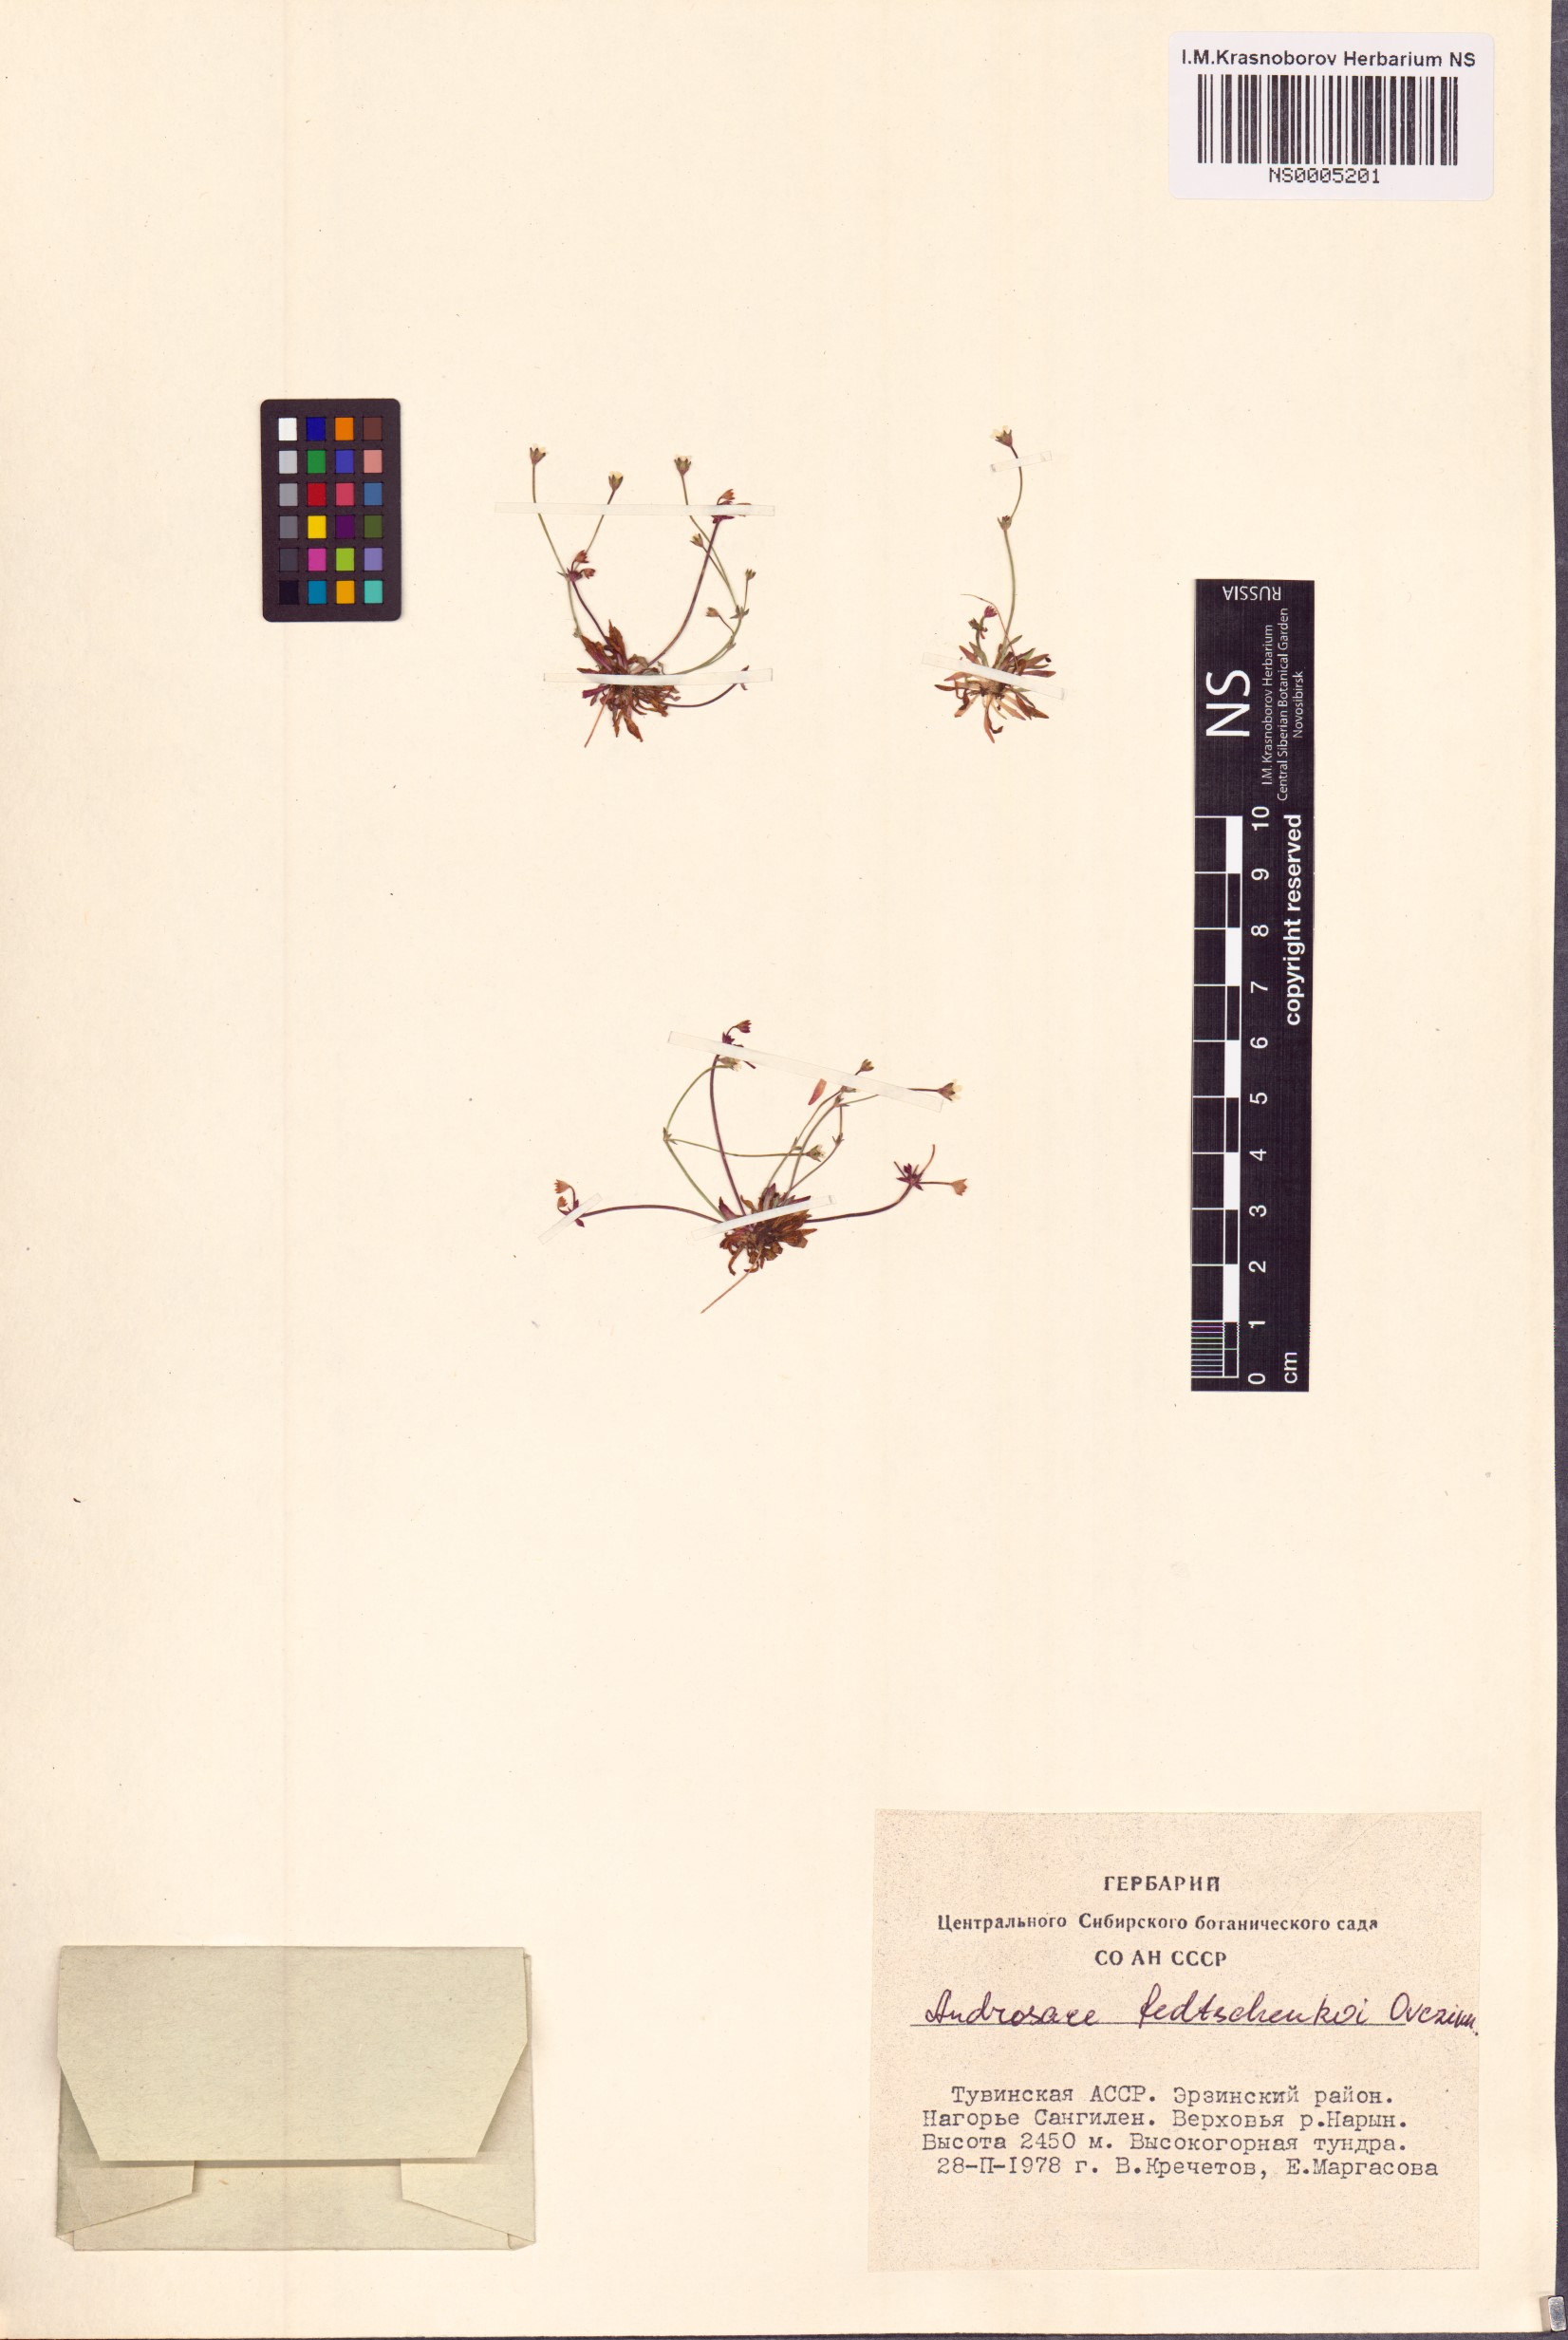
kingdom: Plantae
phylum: Tracheophyta
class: Magnoliopsida
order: Ericales
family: Primulaceae
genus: Androsace
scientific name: Androsace fedtschenkoi
